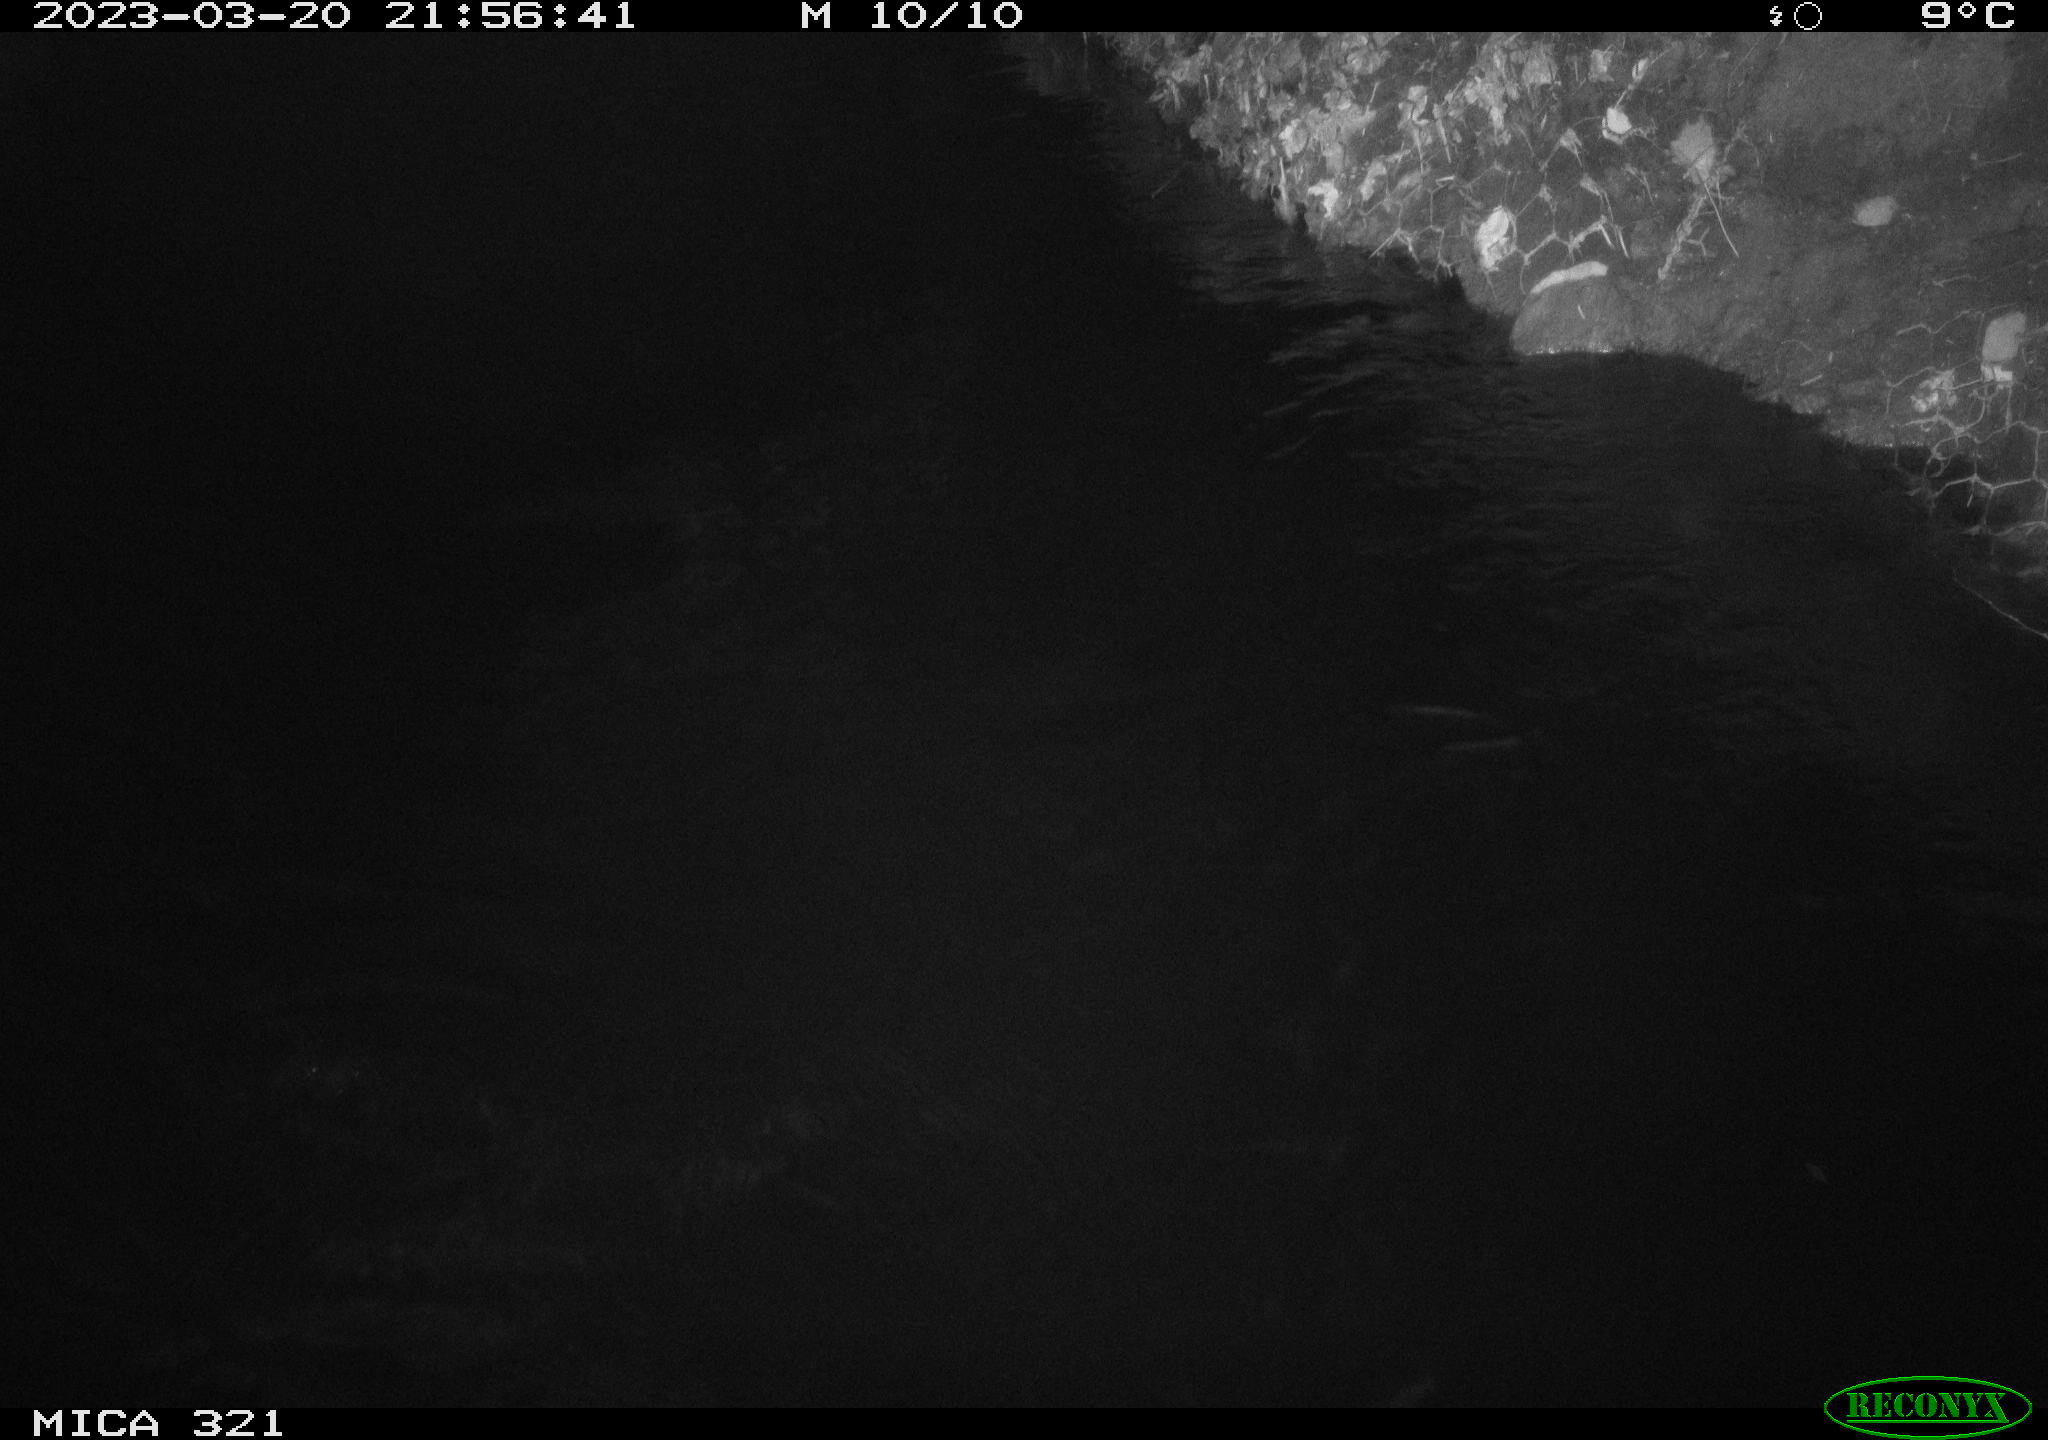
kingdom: Animalia
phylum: Chordata
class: Aves
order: Anseriformes
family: Anatidae
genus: Anas
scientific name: Anas
